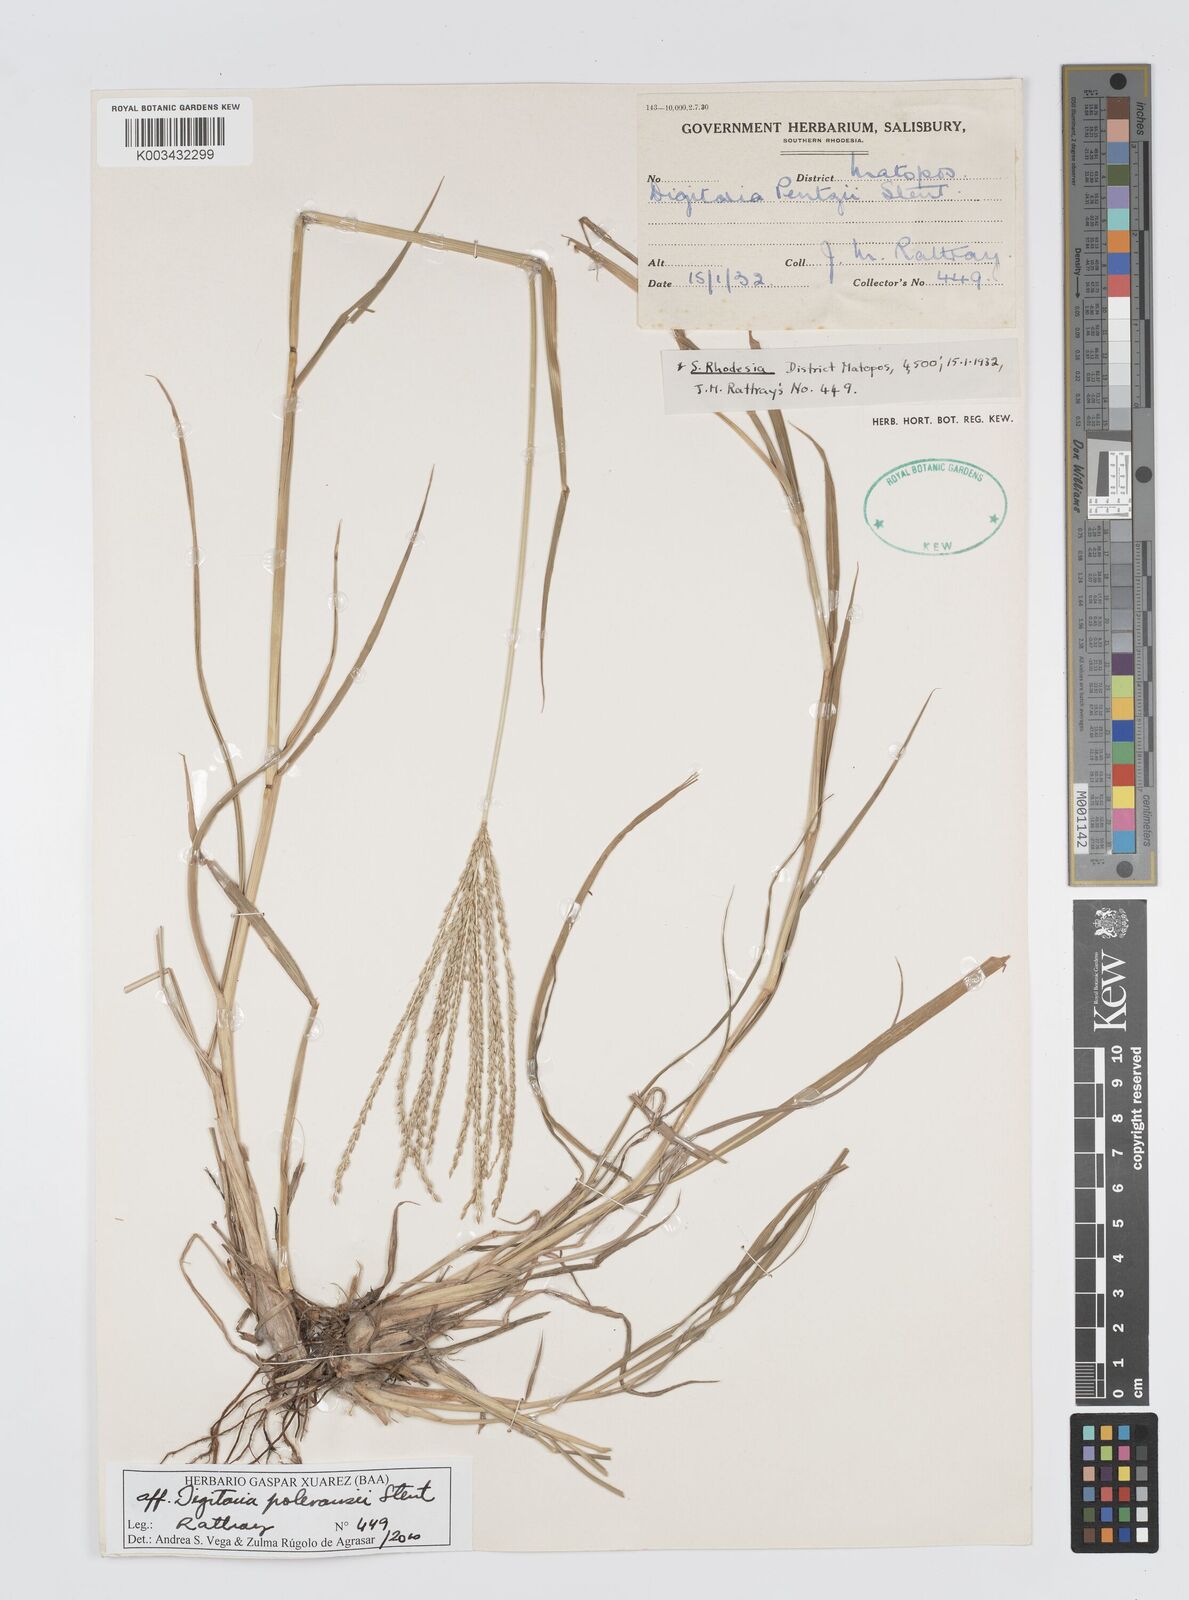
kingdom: Plantae
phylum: Tracheophyta
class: Liliopsida
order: Poales
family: Poaceae
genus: Digitaria
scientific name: Digitaria seriata
